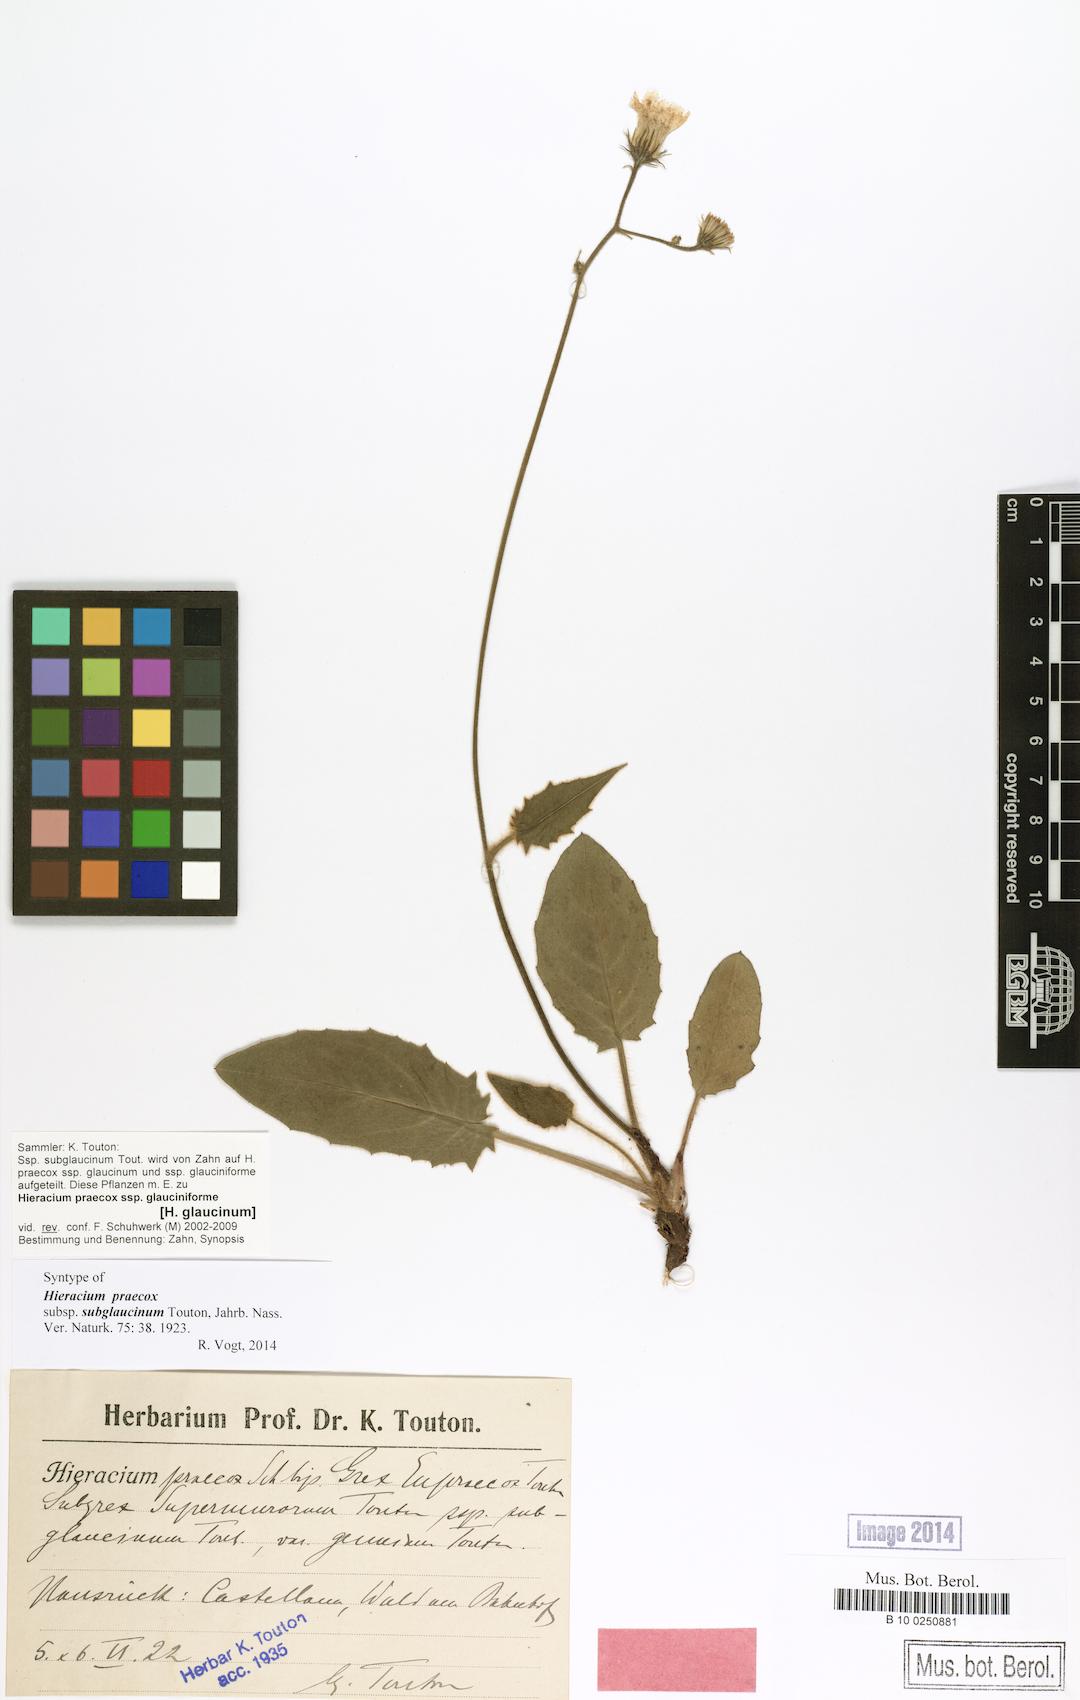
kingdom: Plantae
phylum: Tracheophyta
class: Magnoliopsida
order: Asterales
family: Asteraceae
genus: Hieracium
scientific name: Hieracium glaucinum
